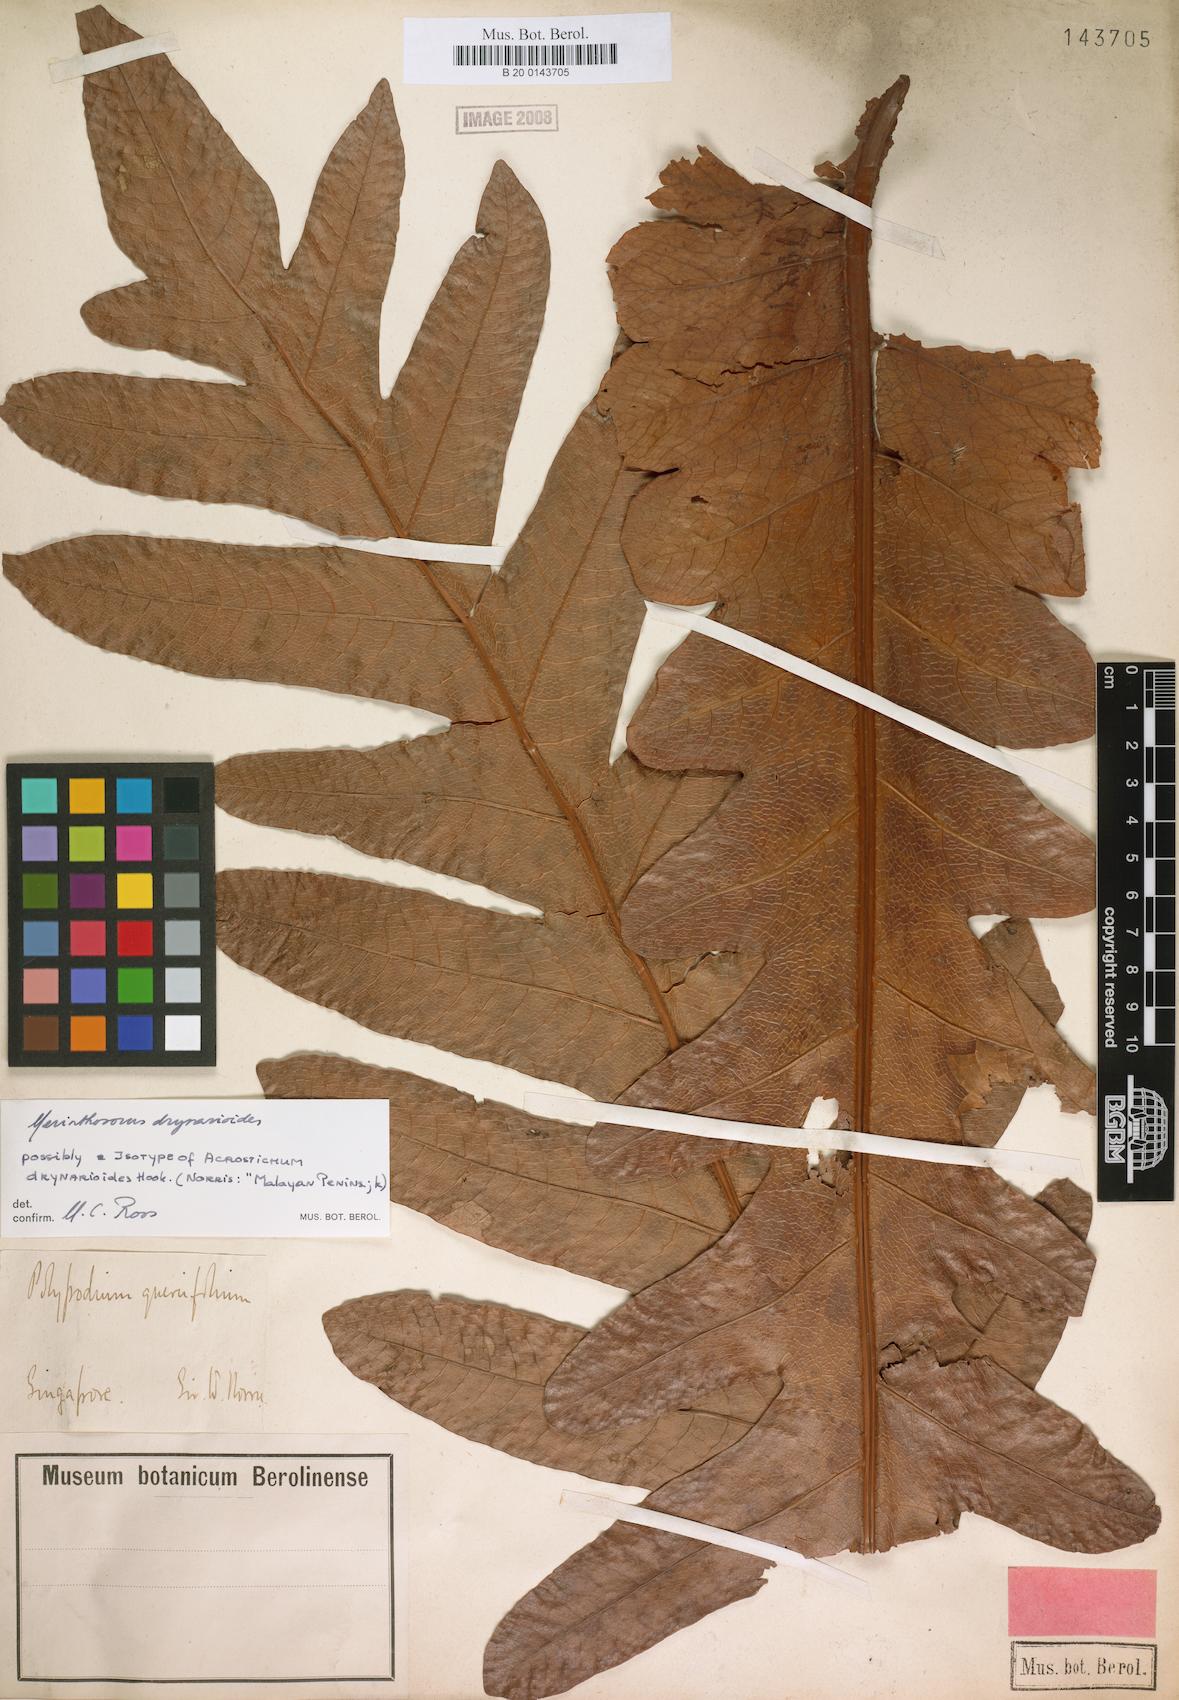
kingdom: Plantae
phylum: Tracheophyta
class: Polypodiopsida
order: Polypodiales
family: Polypodiaceae
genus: Drynaria
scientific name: Drynaria drynarioides
